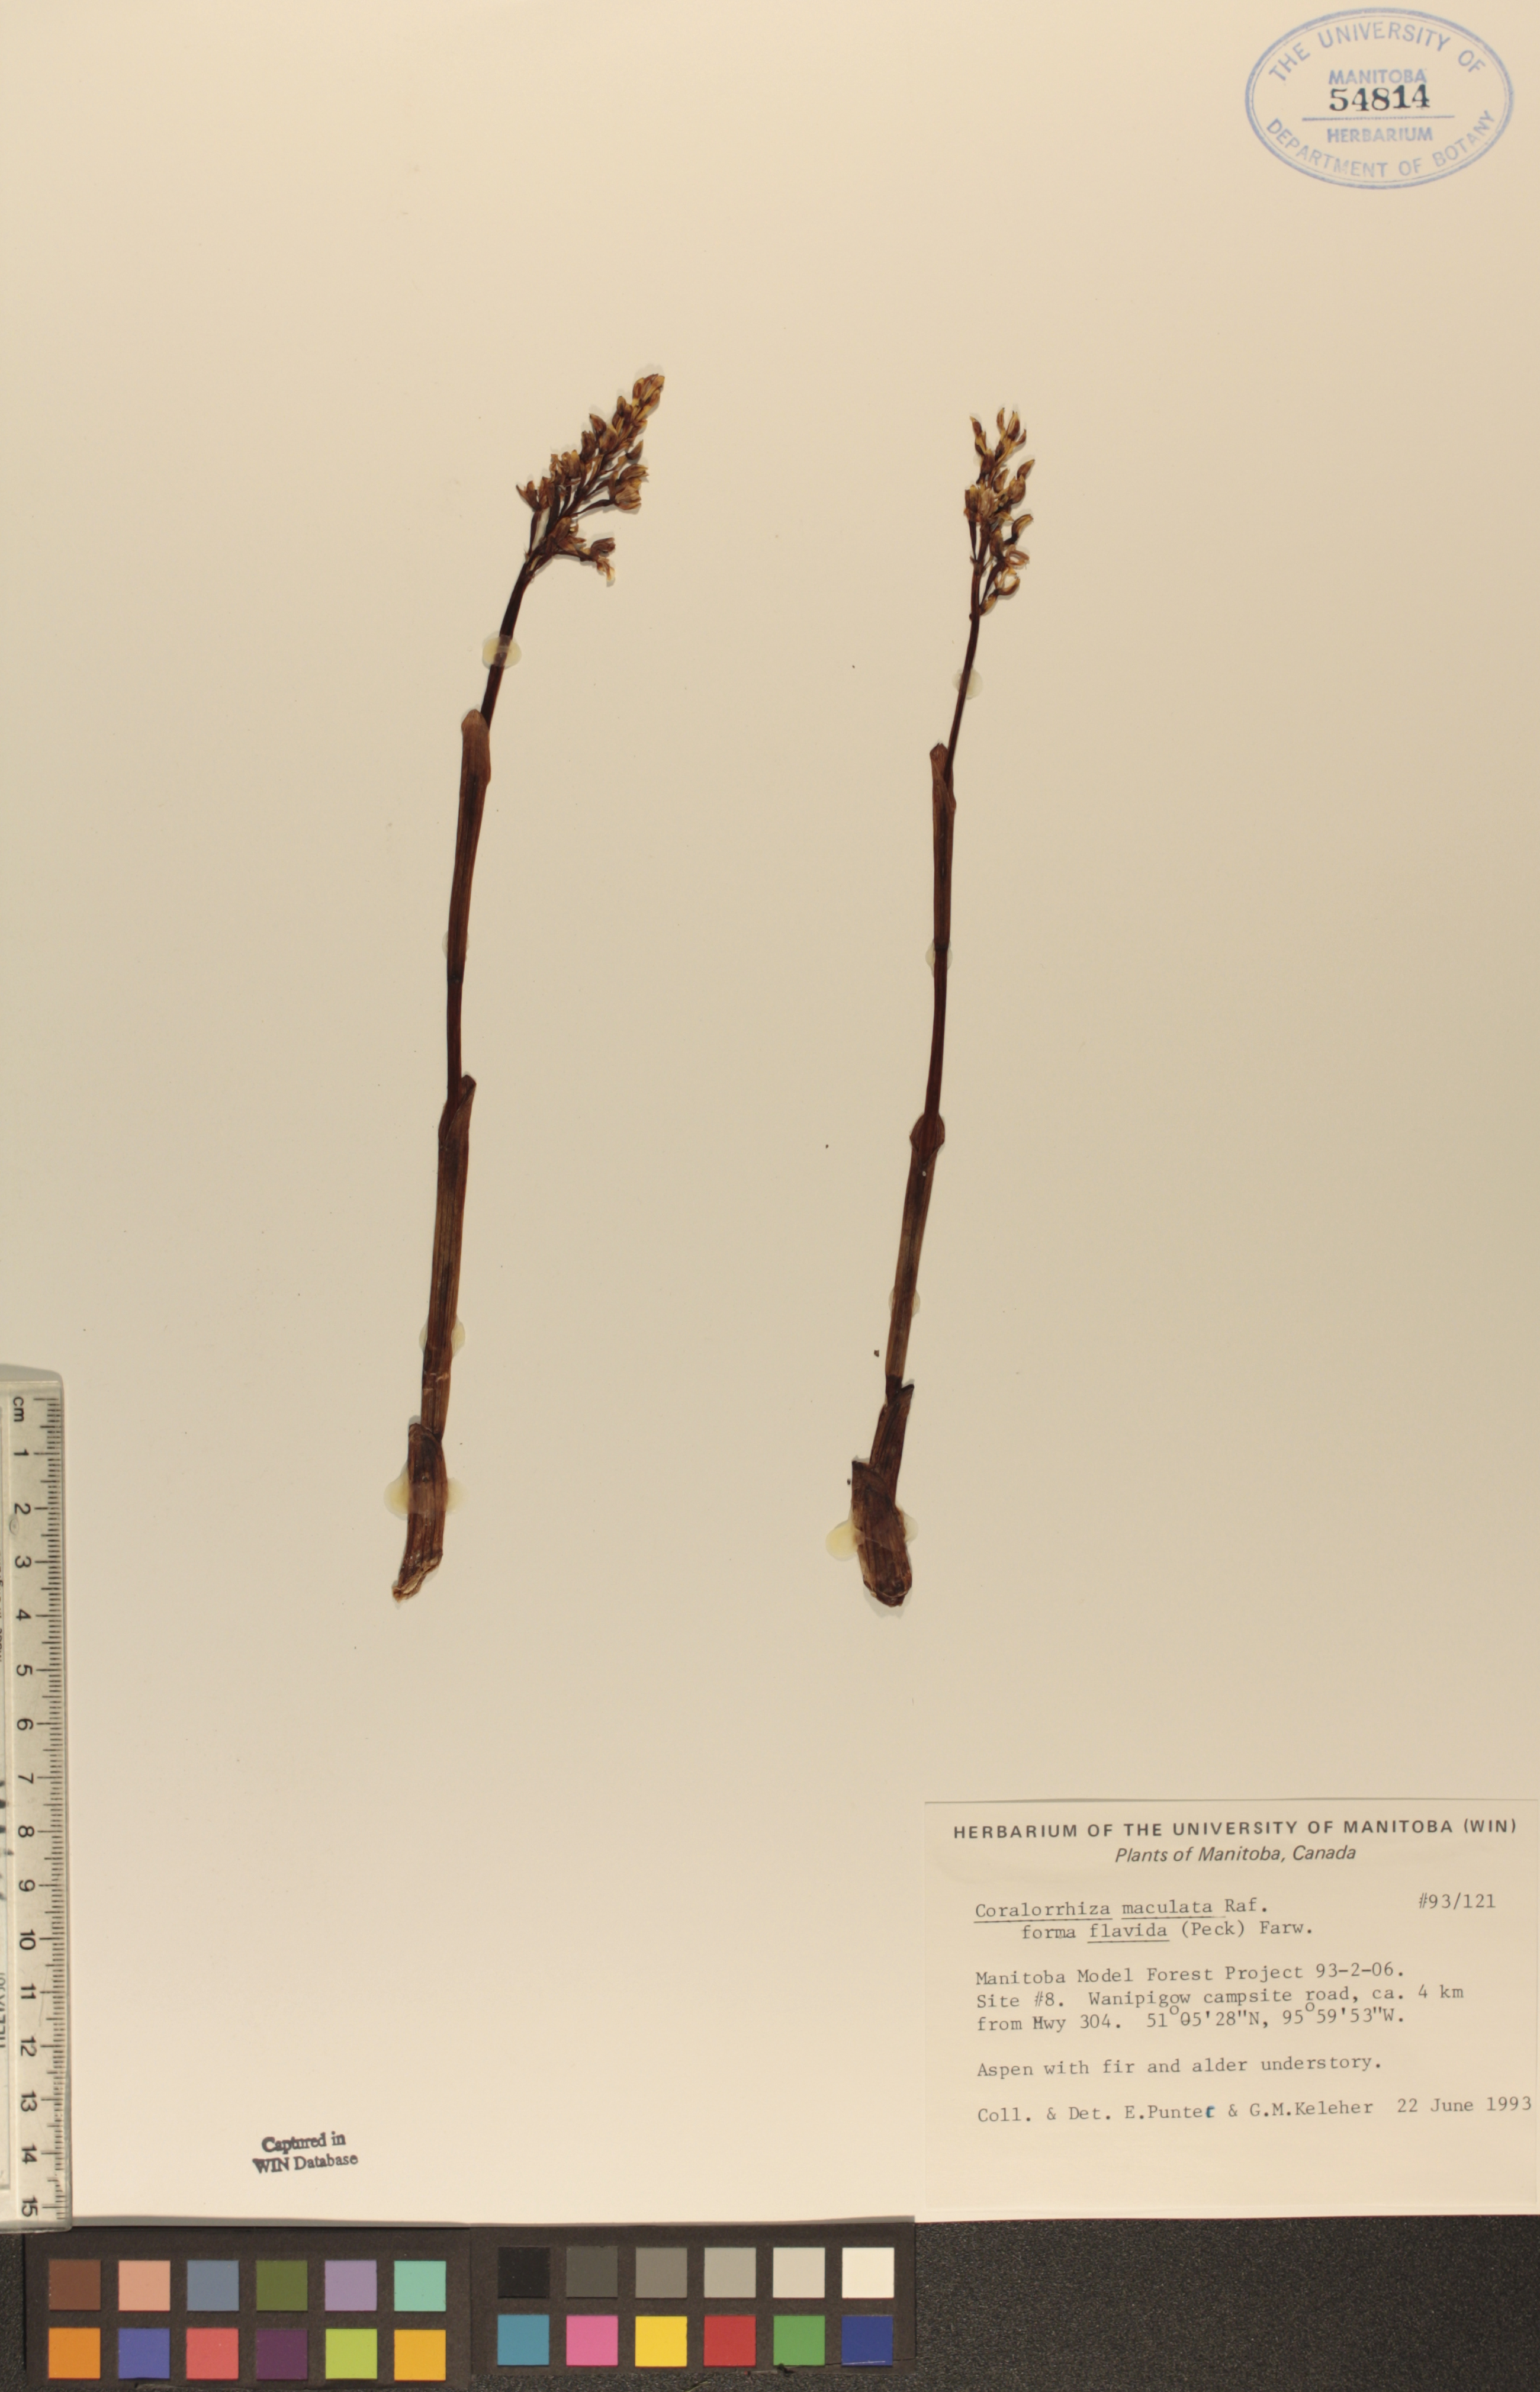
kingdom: Plantae
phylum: Tracheophyta
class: Liliopsida
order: Asparagales
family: Orchidaceae
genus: Corallorhiza
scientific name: Corallorhiza maculata
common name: Spotted coralroot
